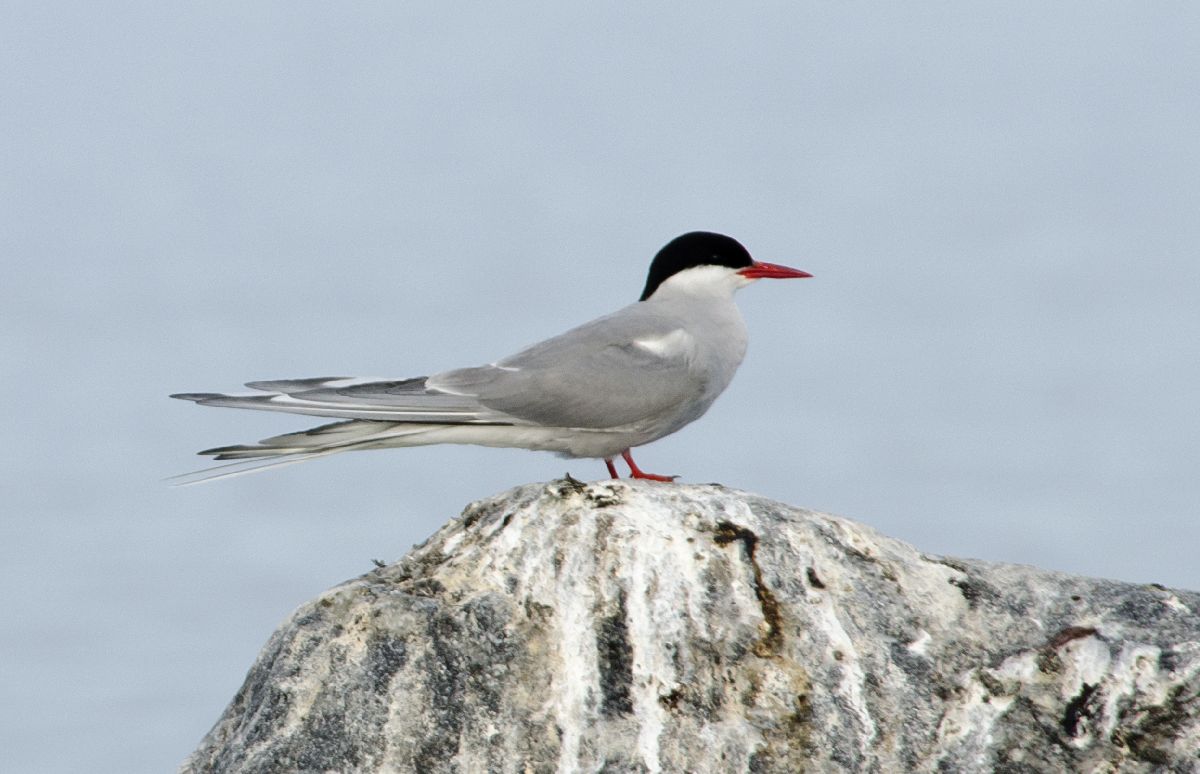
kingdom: Animalia
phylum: Chordata
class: Aves
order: Charadriiformes
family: Laridae
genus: Sterna
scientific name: Sterna paradisaea
